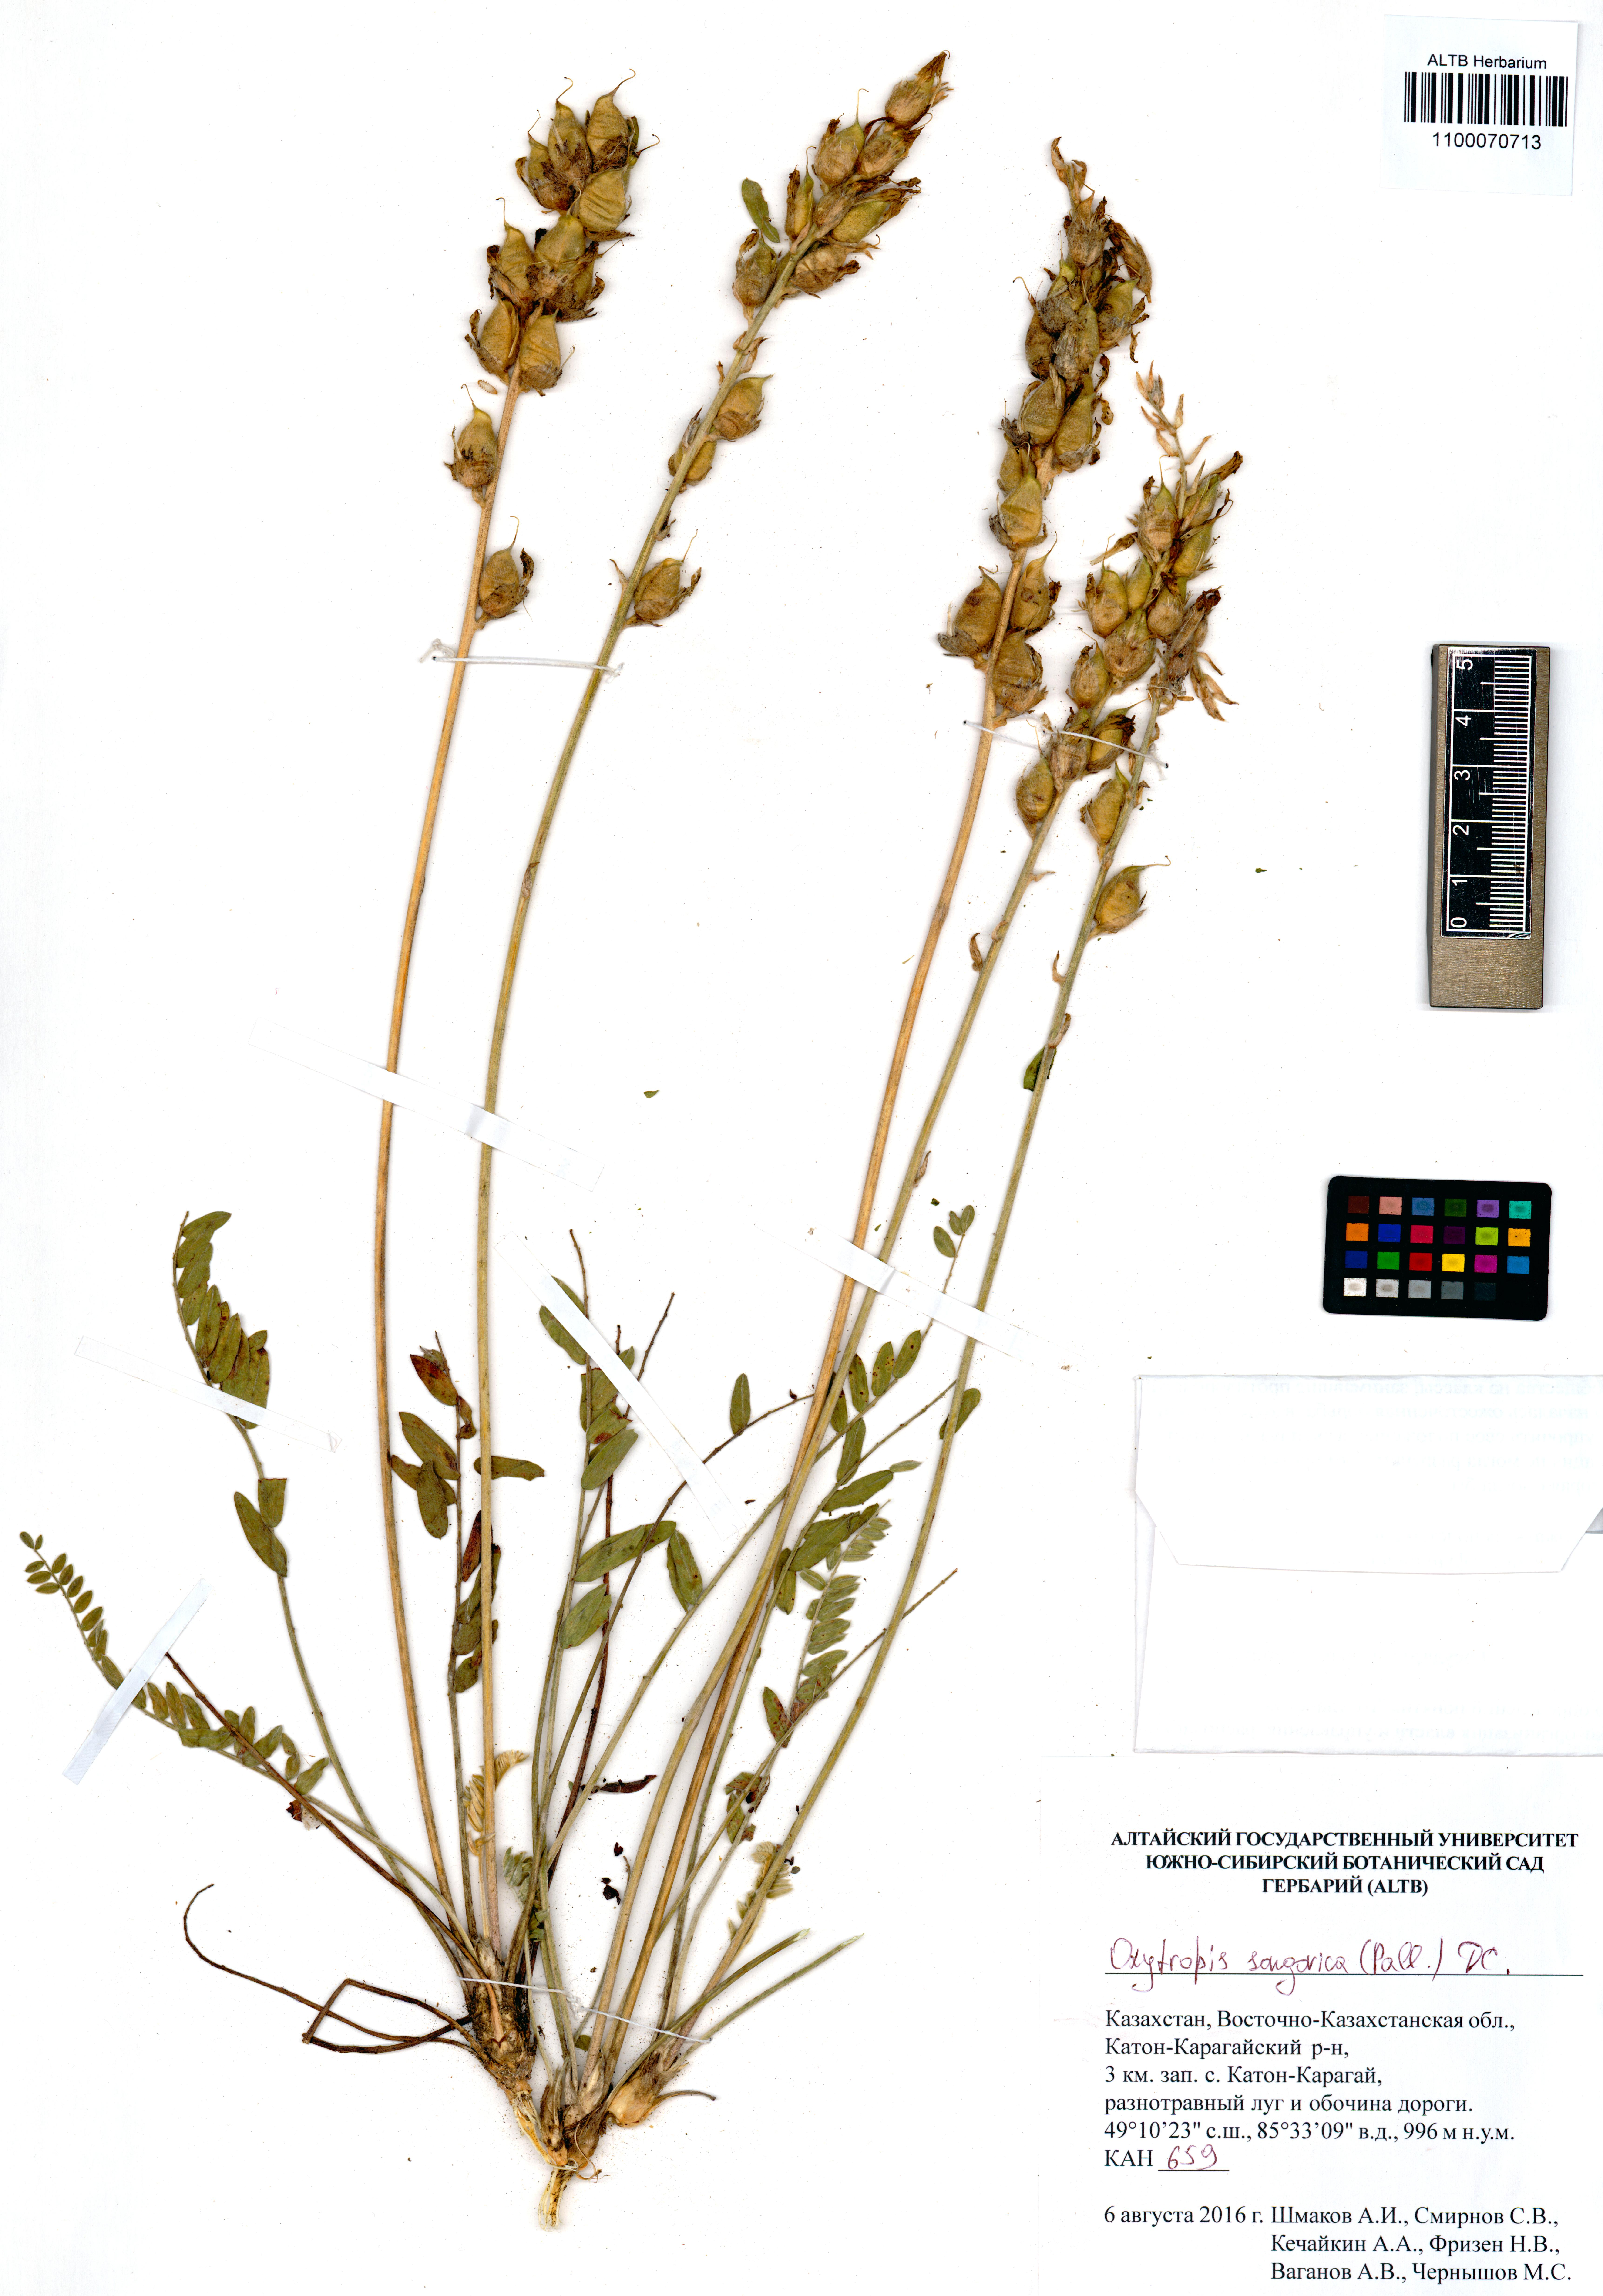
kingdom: Plantae
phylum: Tracheophyta
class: Magnoliopsida
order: Fabales
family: Fabaceae
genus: Oxytropis
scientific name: Oxytropis songarica
